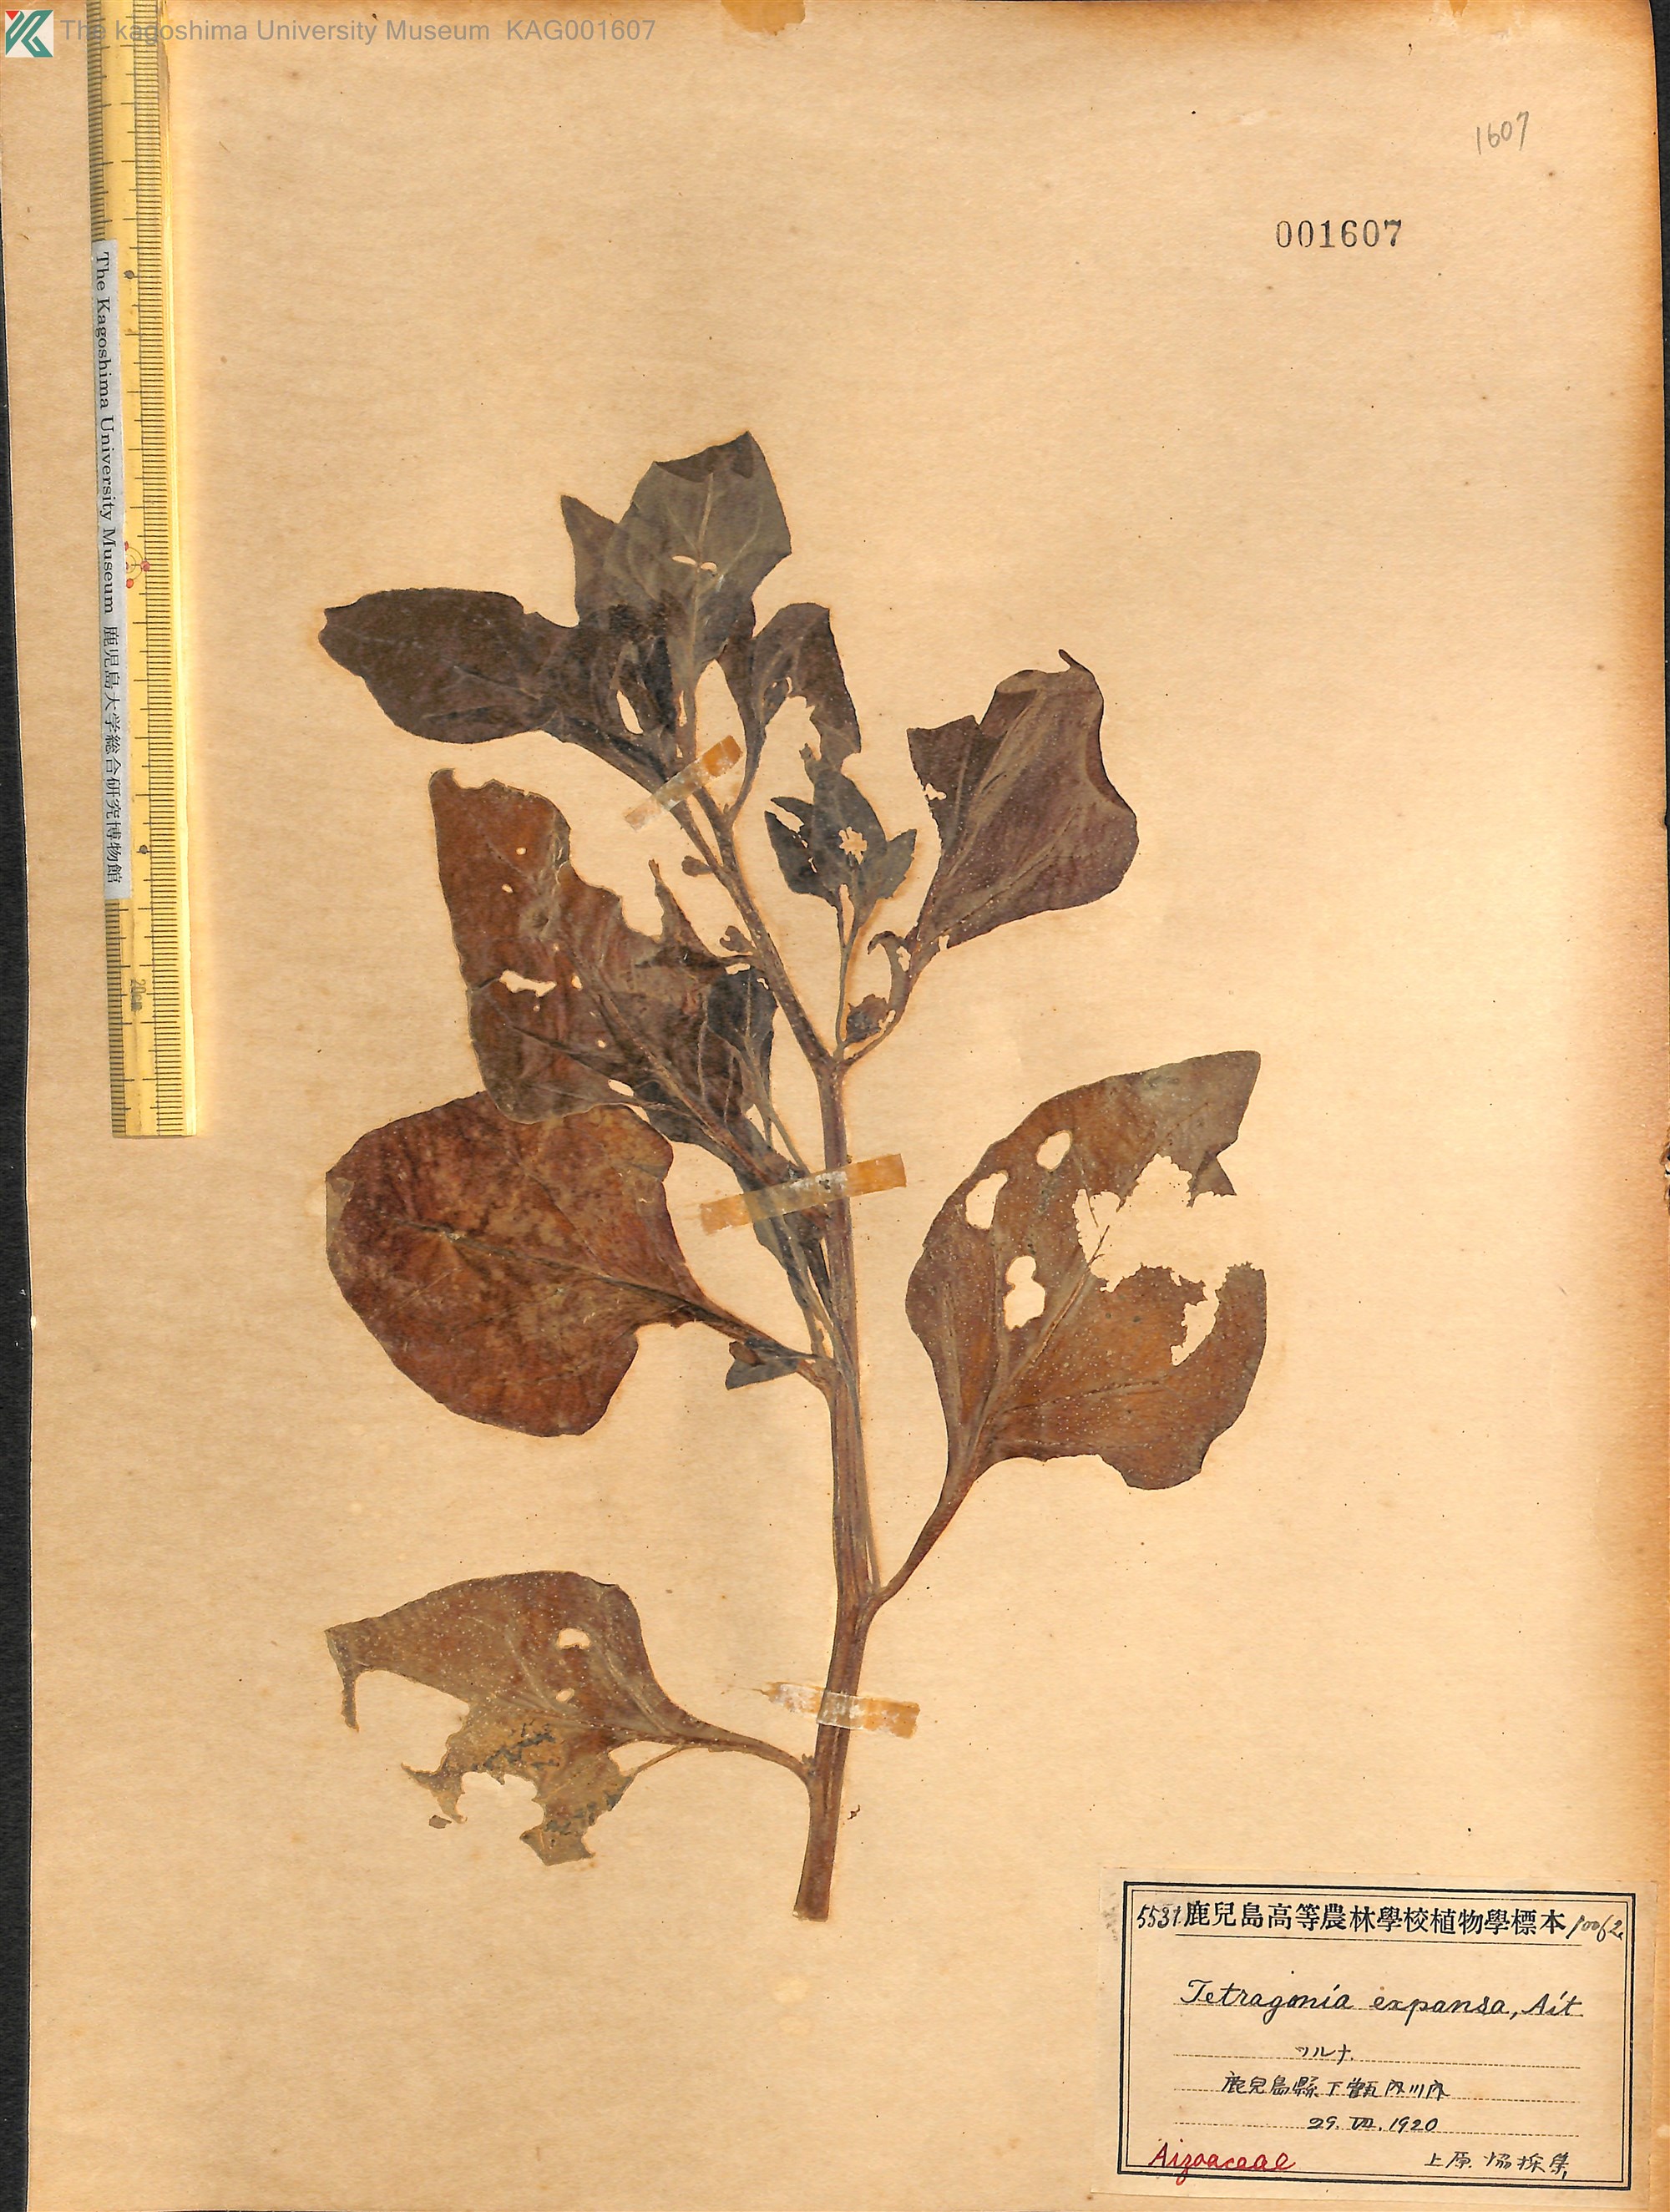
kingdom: Plantae
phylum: Tracheophyta
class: Magnoliopsida
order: Caryophyllales
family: Aizoaceae
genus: Tetragonia
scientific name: Tetragonia tetragonoides
